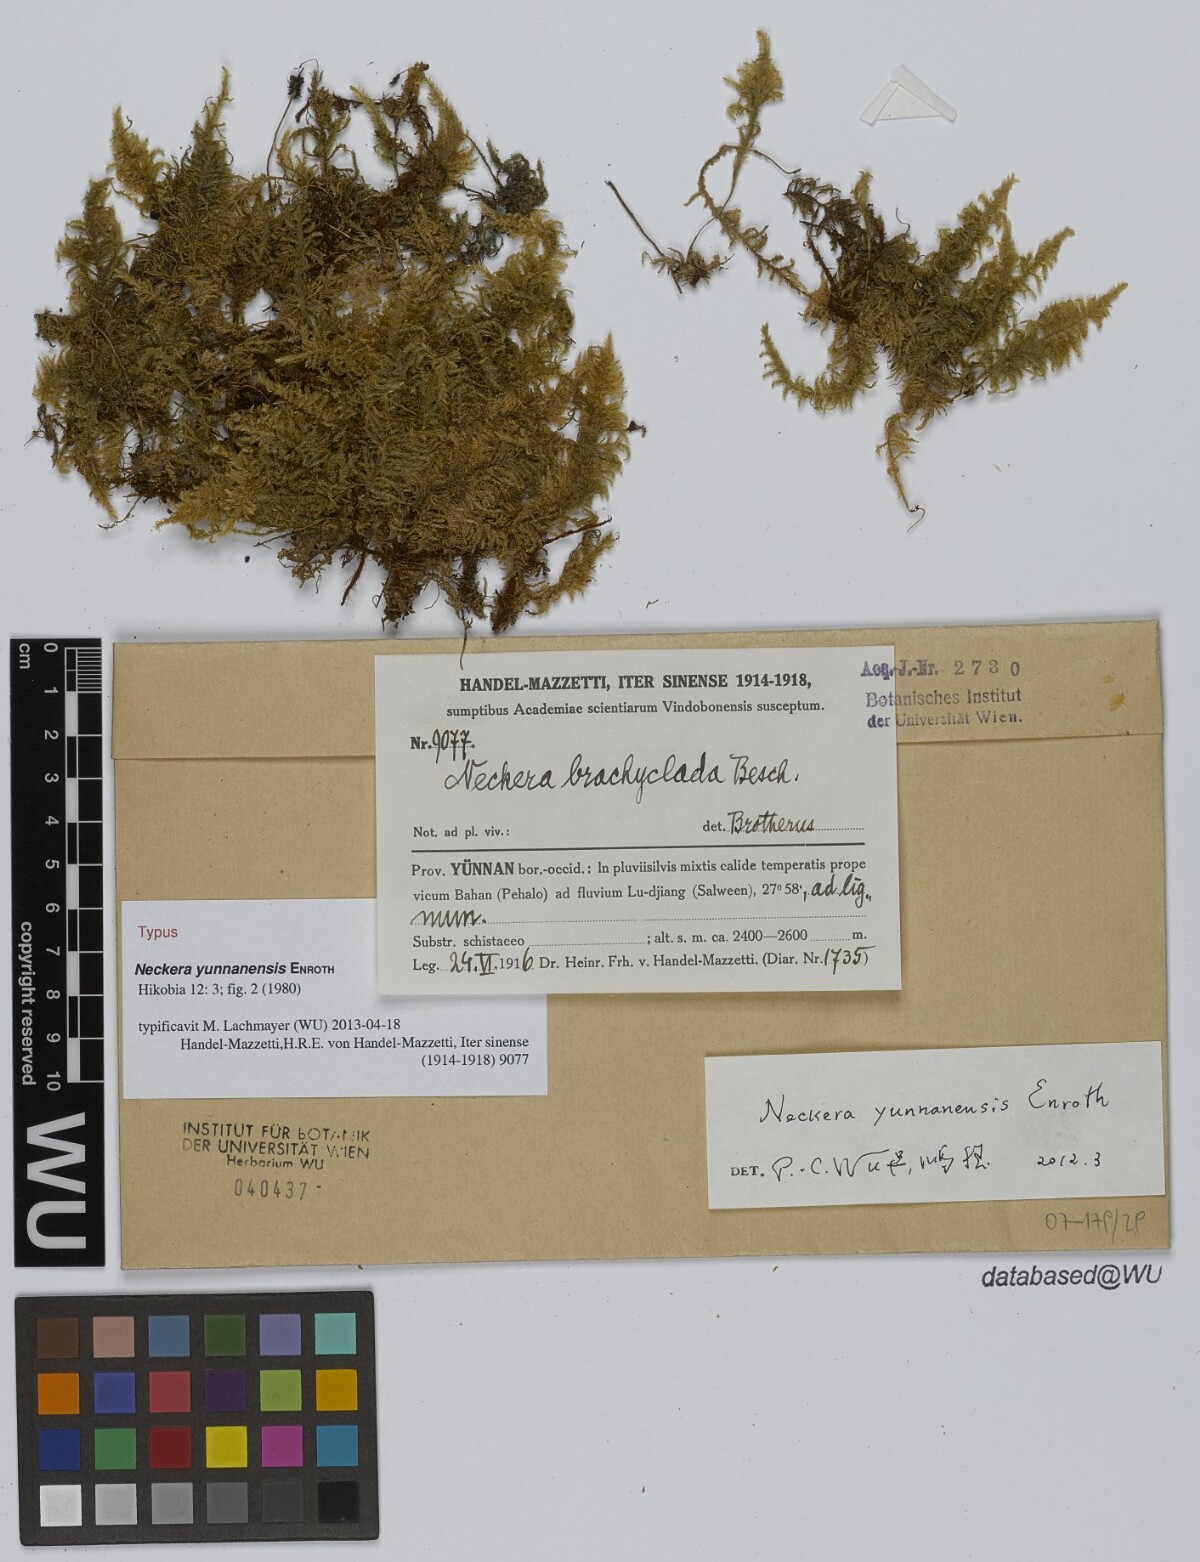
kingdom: Plantae
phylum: Bryophyta
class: Bryopsida
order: Hypnales
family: Neckeraceae
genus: Taiwanobryum
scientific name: Taiwanobryum yunnanense
